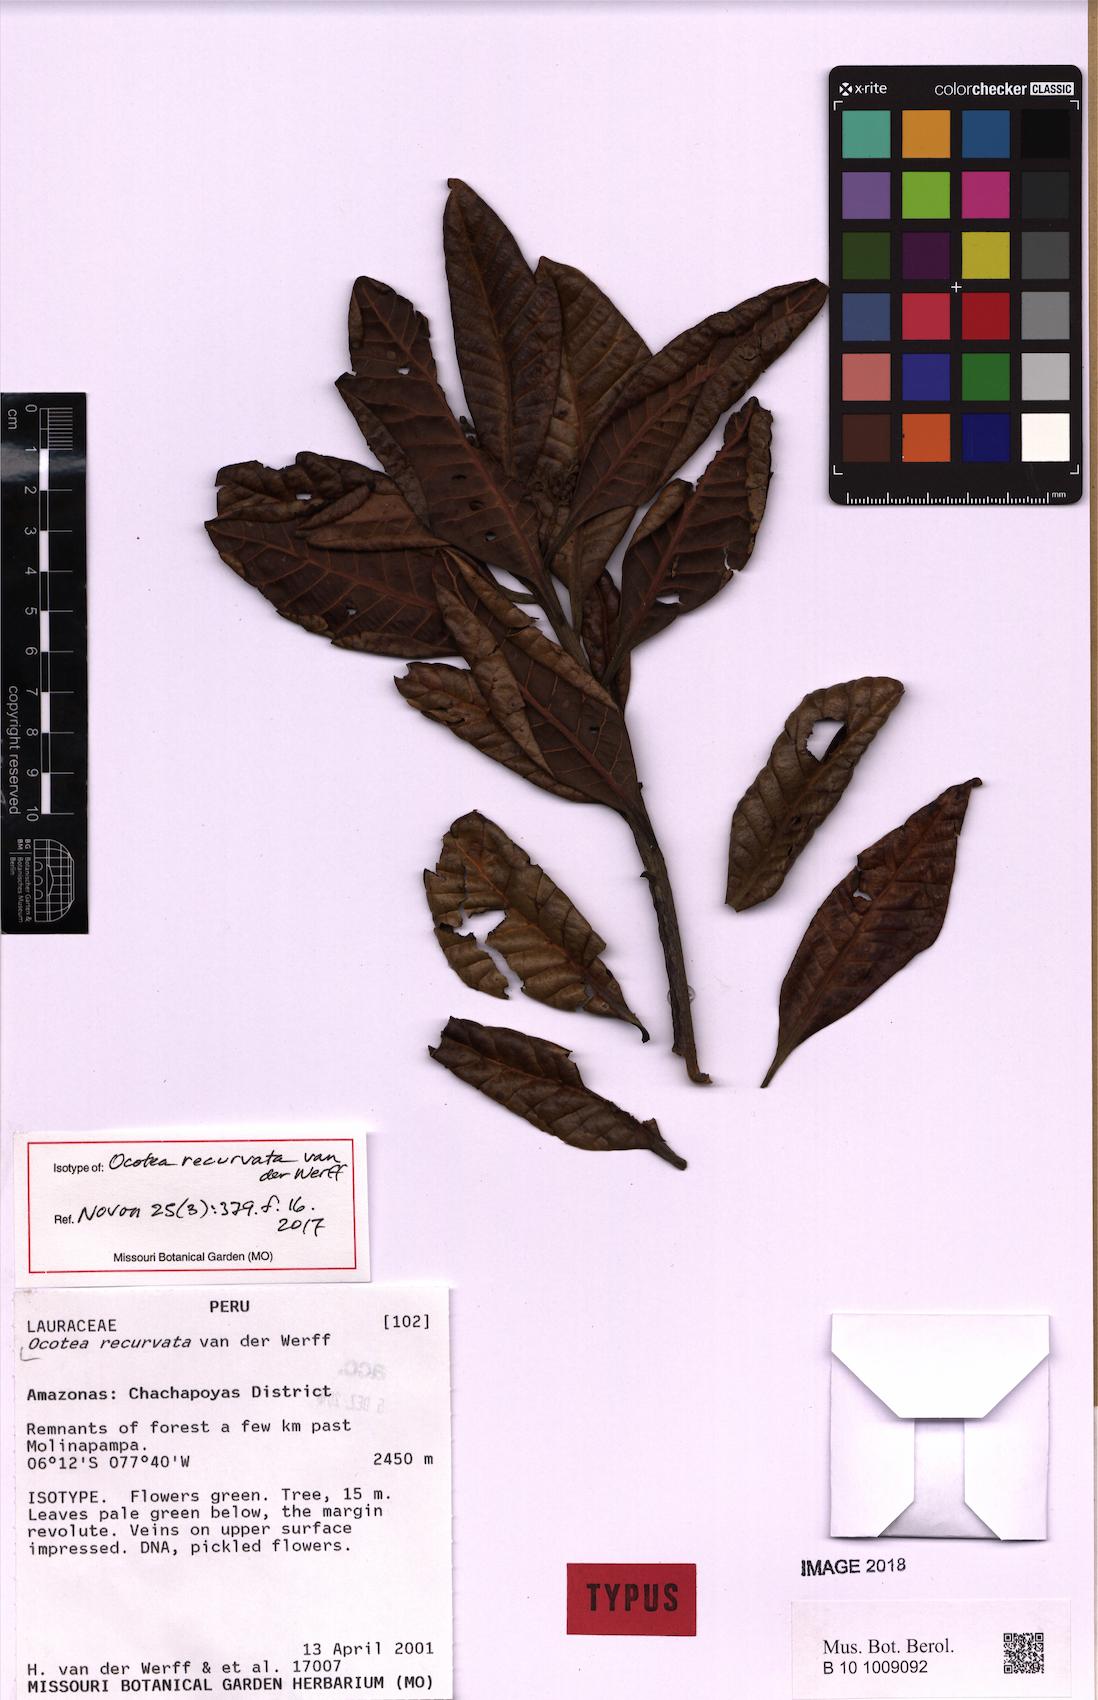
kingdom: Plantae
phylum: Tracheophyta
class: Magnoliopsida
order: Laurales
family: Lauraceae
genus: Ocotea
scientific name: Ocotea recurvata
